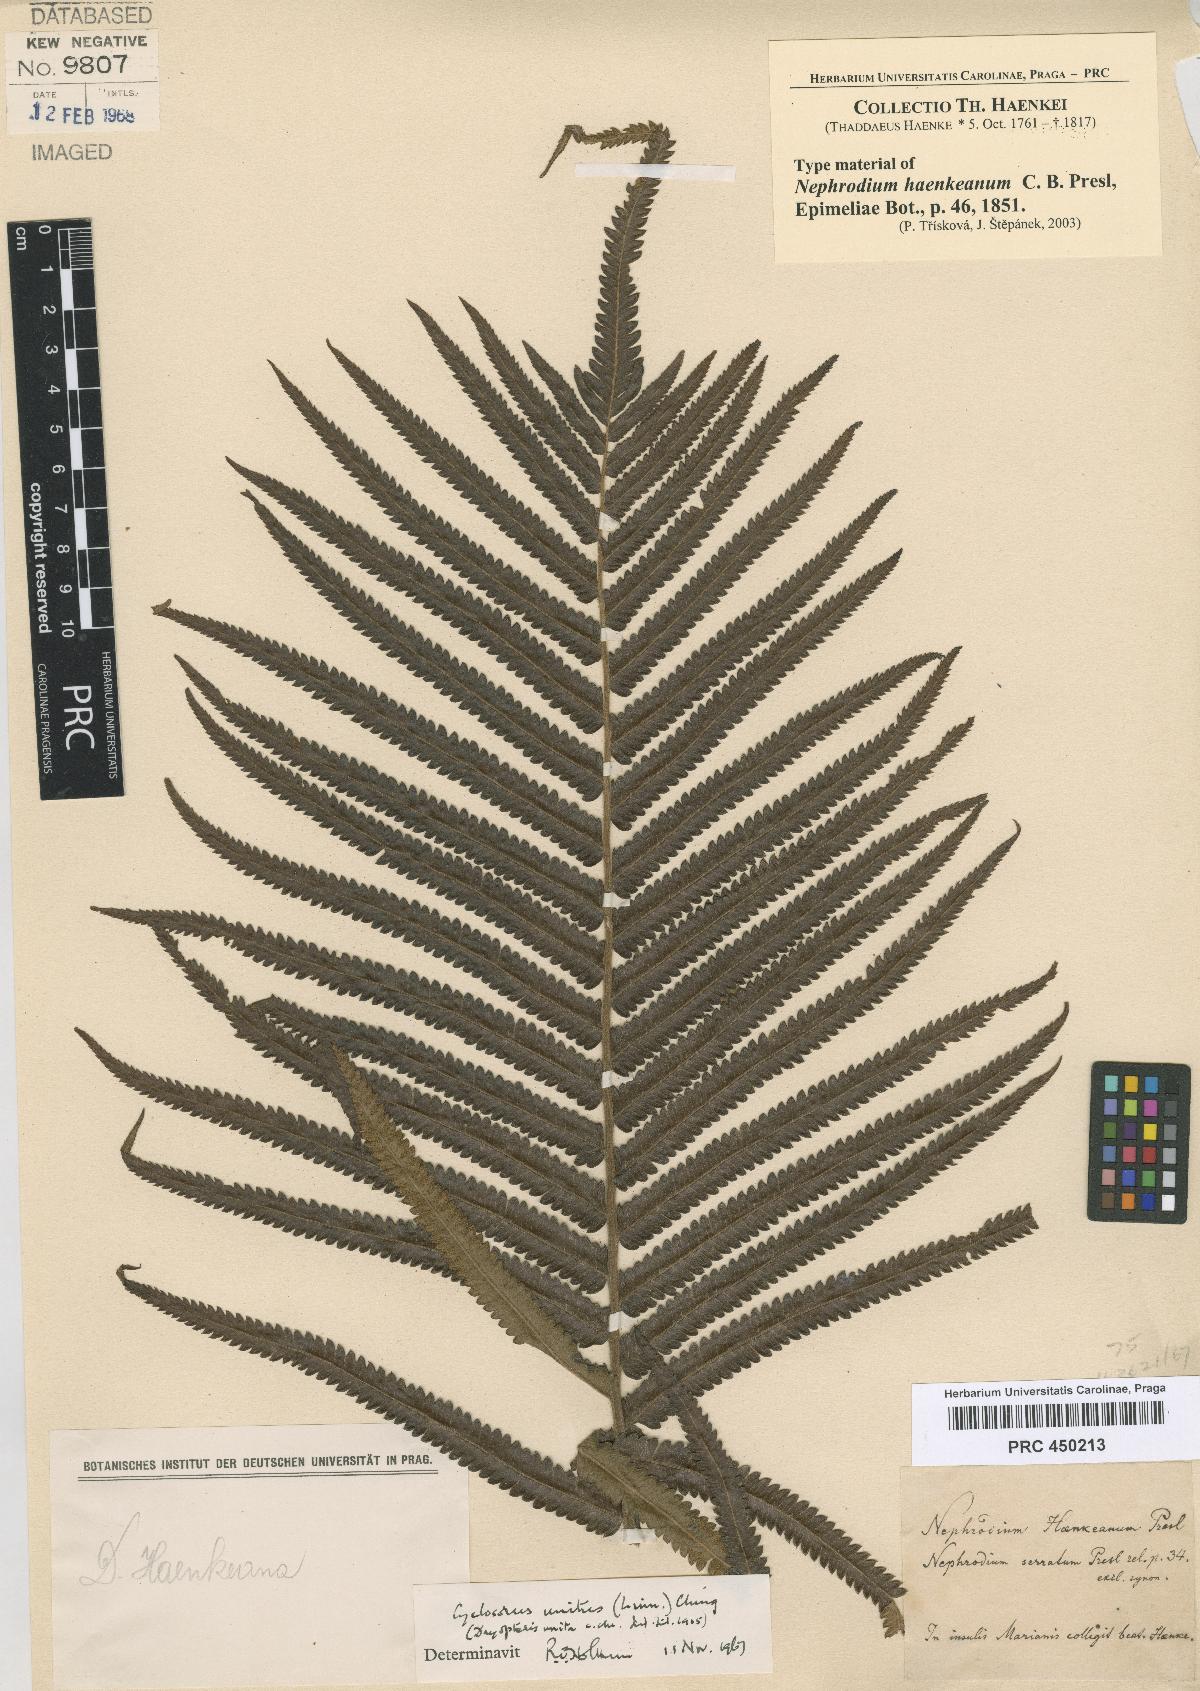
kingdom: Plantae
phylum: Tracheophyta
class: Polypodiopsida
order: Polypodiales
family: Thelypteridaceae
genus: Strophocaulon
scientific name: Strophocaulon unitum
